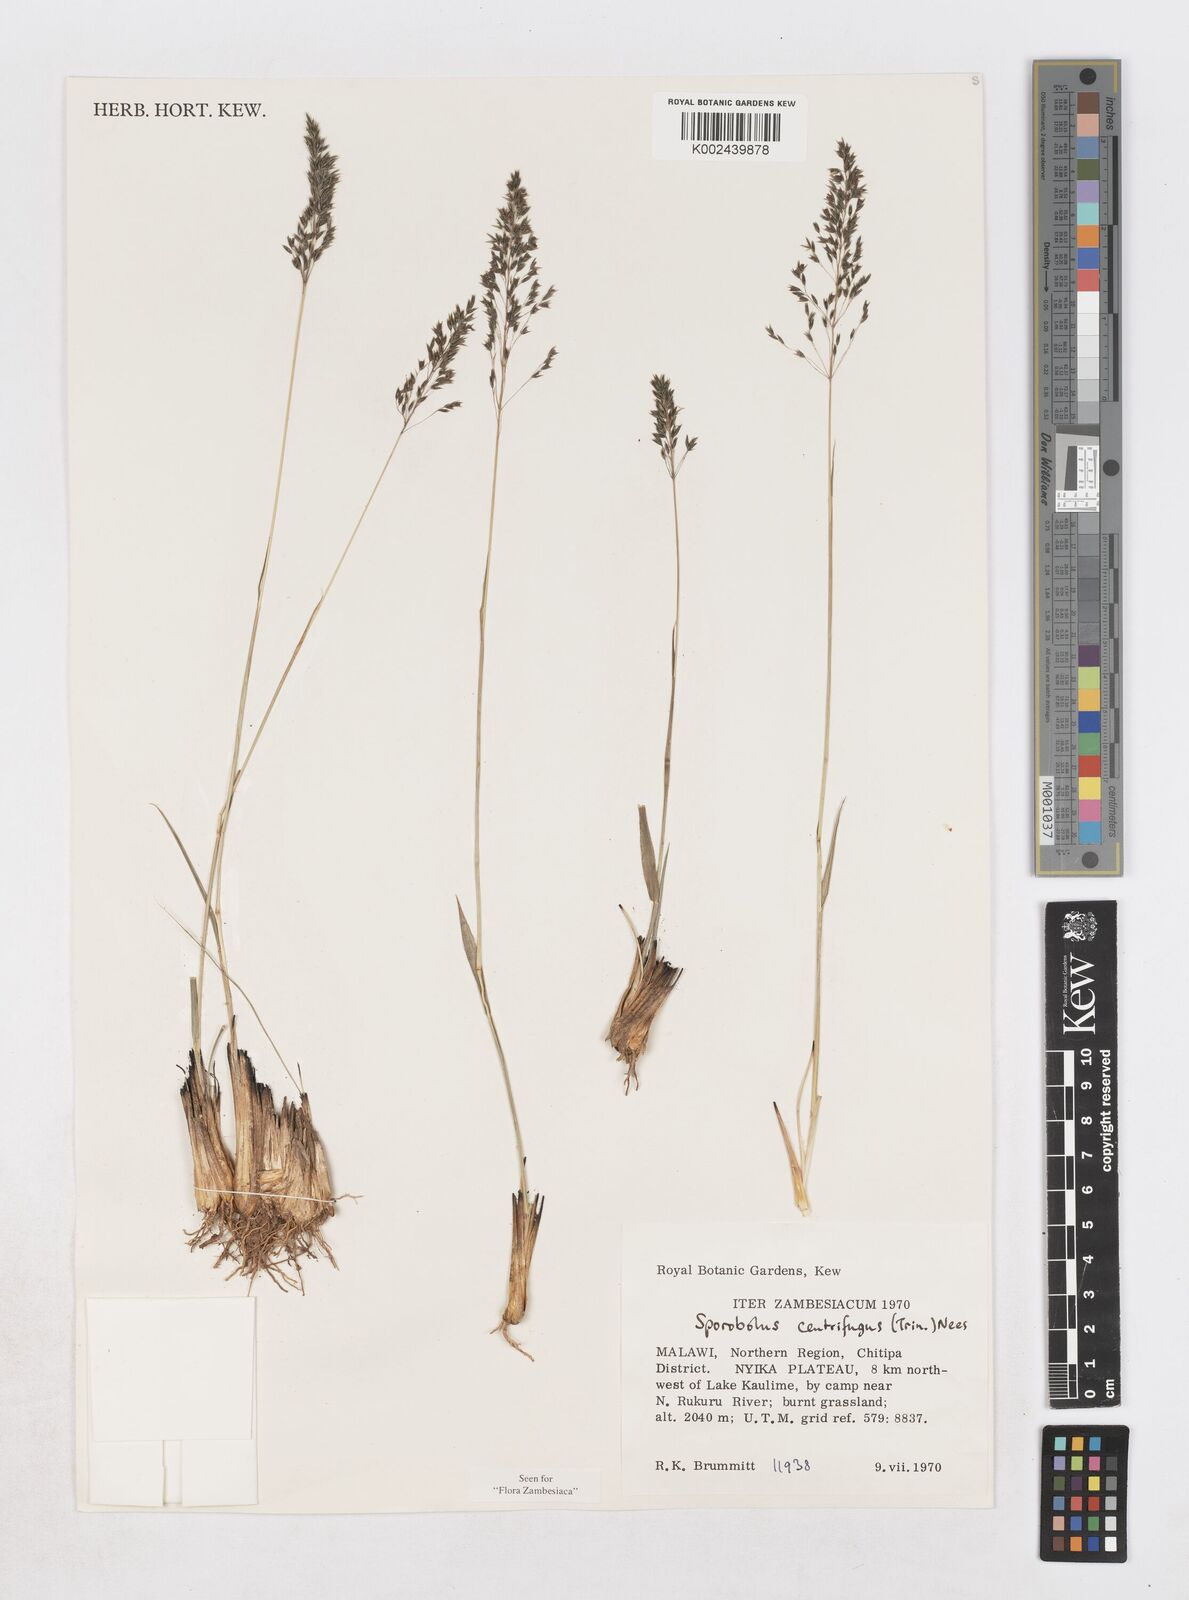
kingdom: Plantae
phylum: Tracheophyta
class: Liliopsida
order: Poales
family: Poaceae
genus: Sporobolus
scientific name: Sporobolus centrifugus
